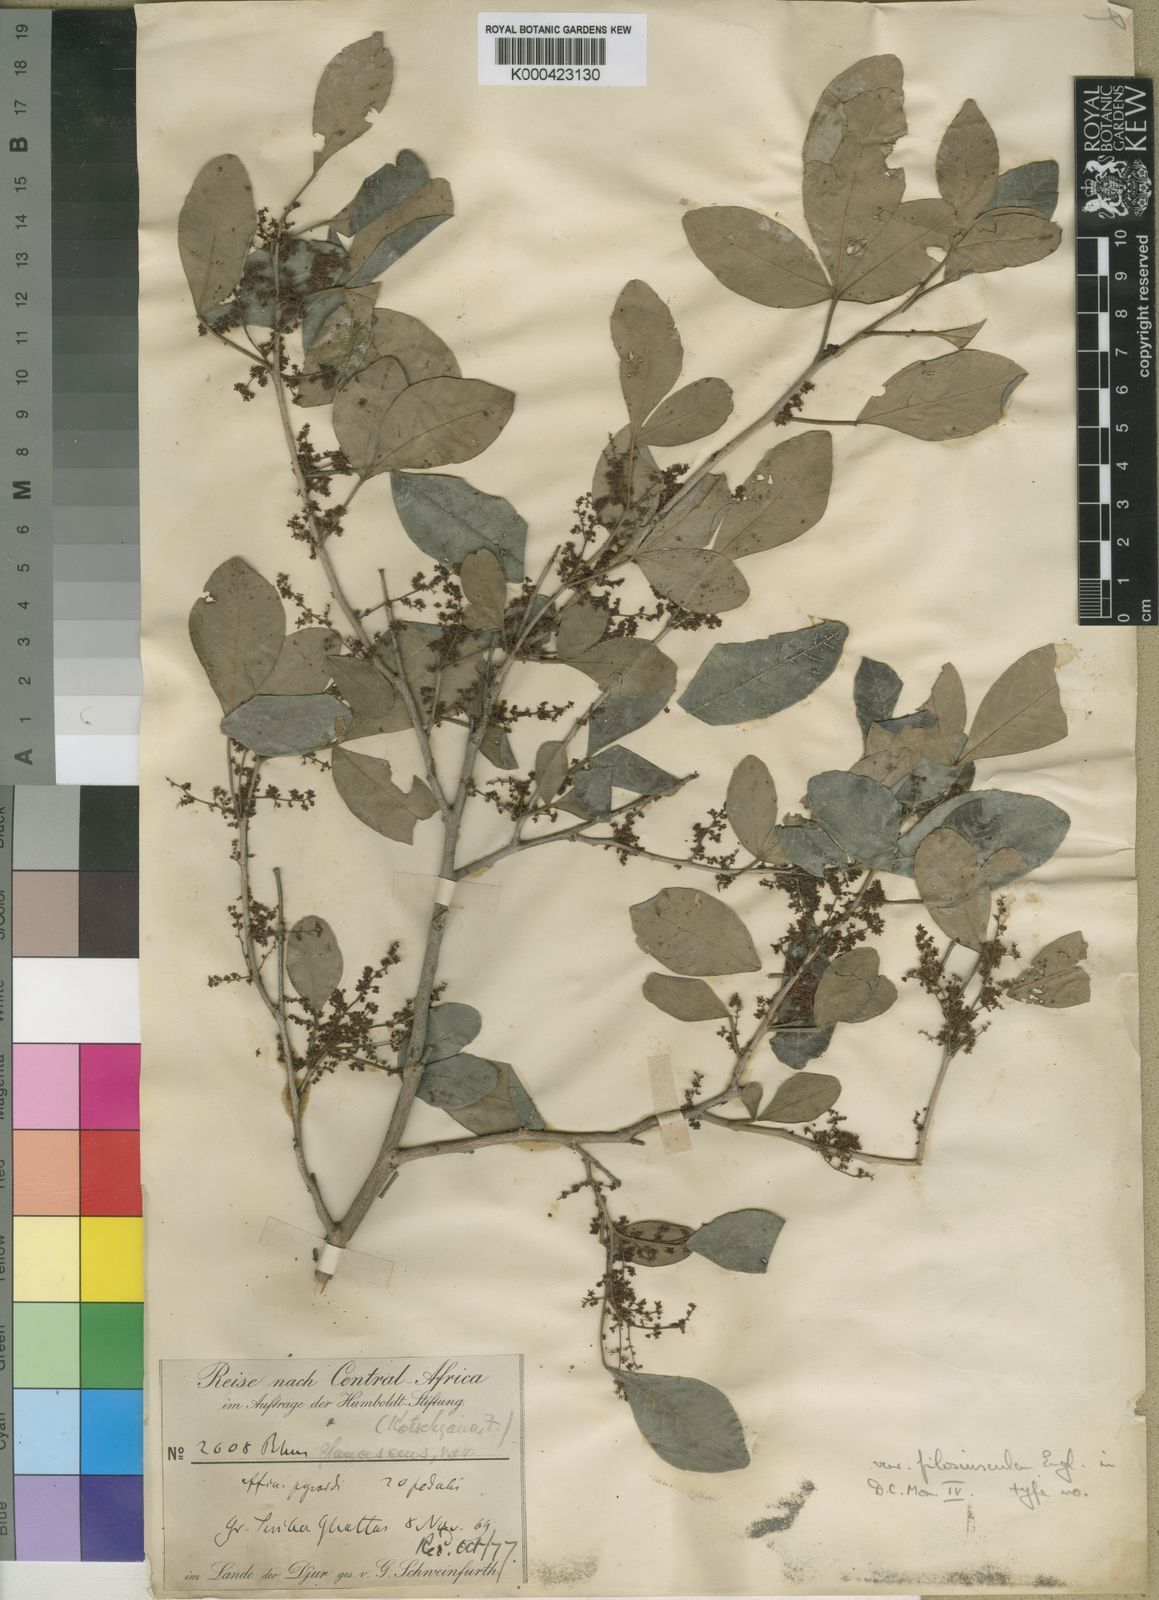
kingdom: Plantae
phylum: Tracheophyta
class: Magnoliopsida
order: Sapindales
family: Anacardiaceae
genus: Searsia
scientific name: Searsia natalensis
